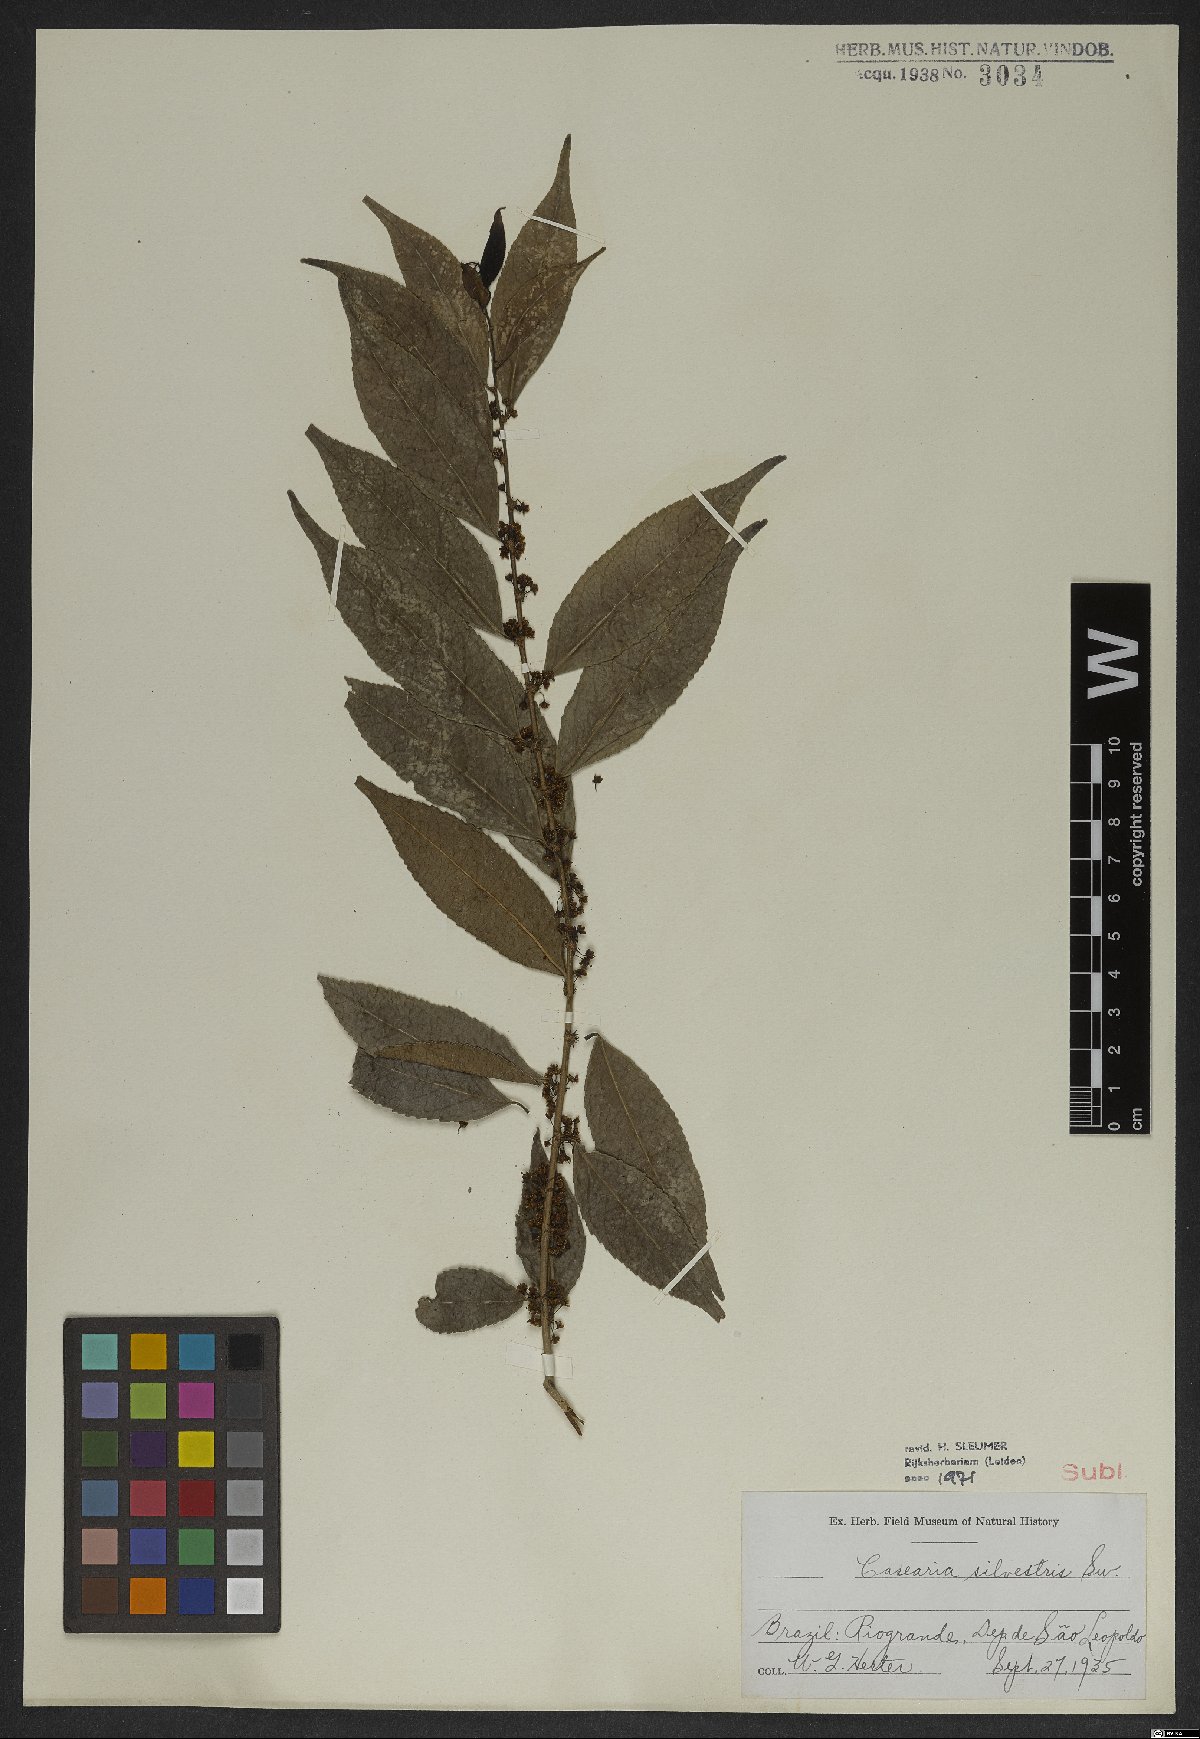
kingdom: Plantae
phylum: Tracheophyta
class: Magnoliopsida
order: Malpighiales
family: Salicaceae
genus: Casearia
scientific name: Casearia sylvestris
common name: Wild sage
